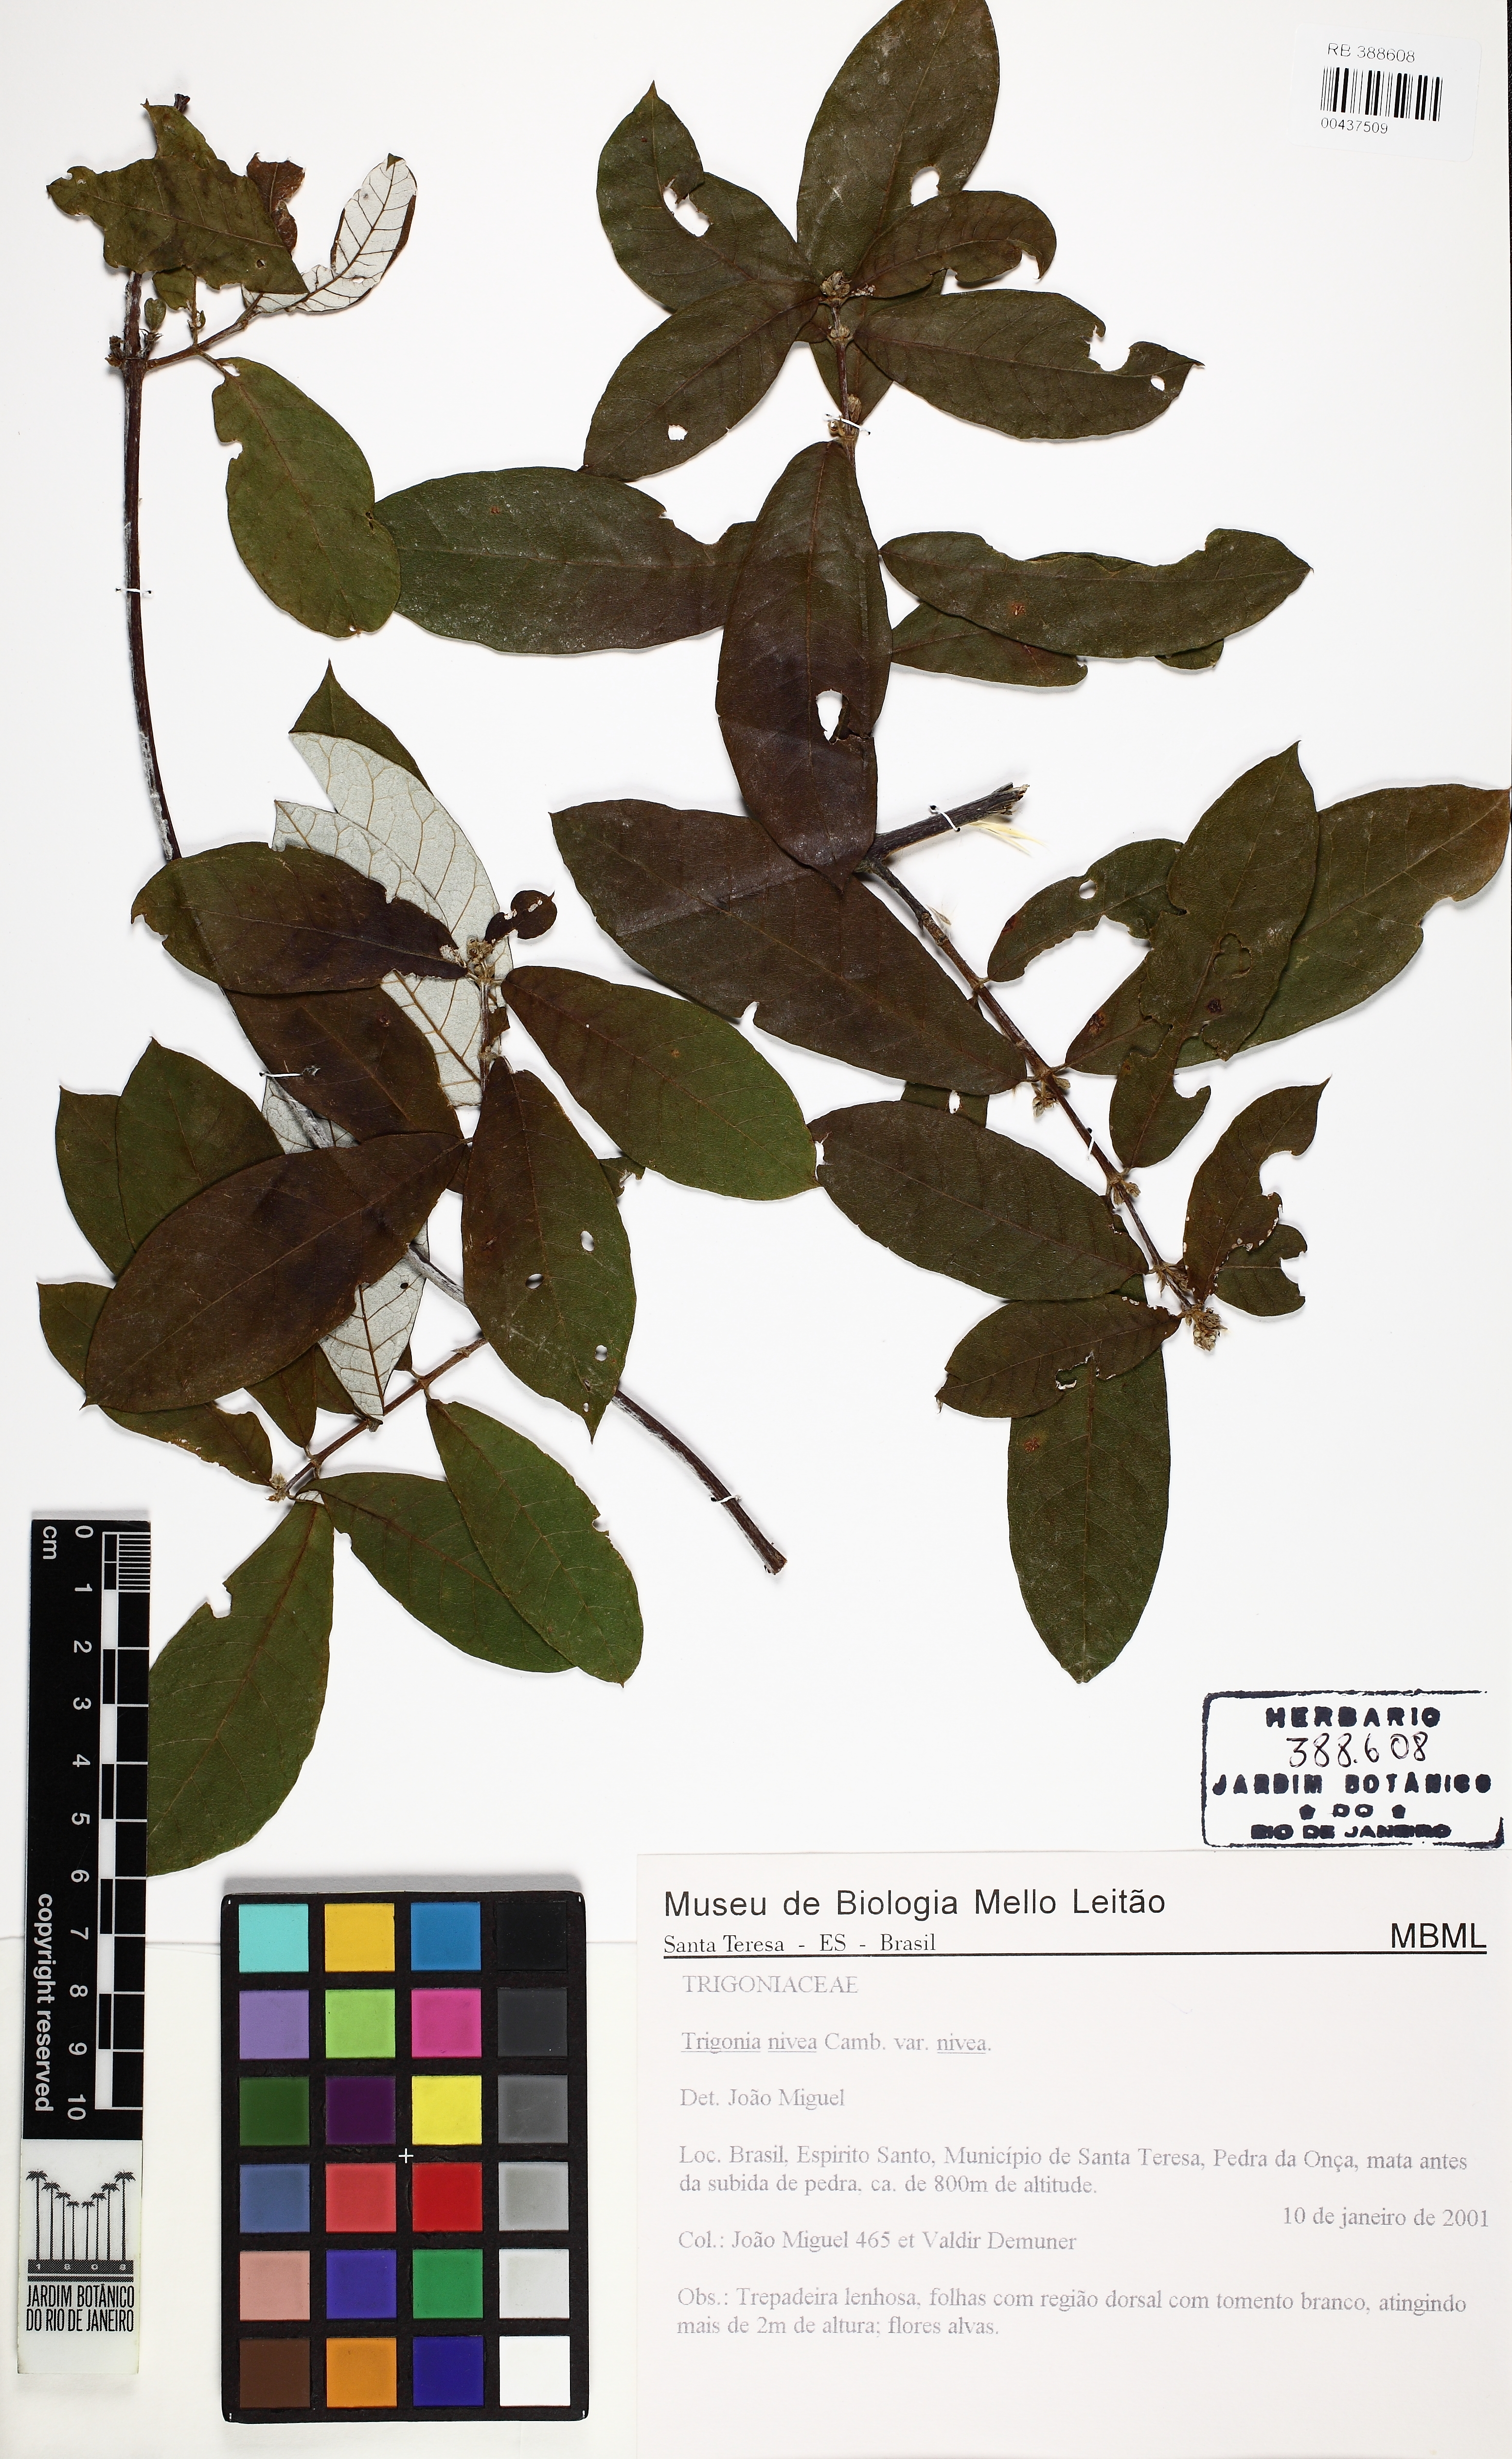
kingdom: Plantae
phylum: Tracheophyta
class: Magnoliopsida
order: Malpighiales
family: Trigoniaceae
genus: Trigonia
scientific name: Trigonia nivea
